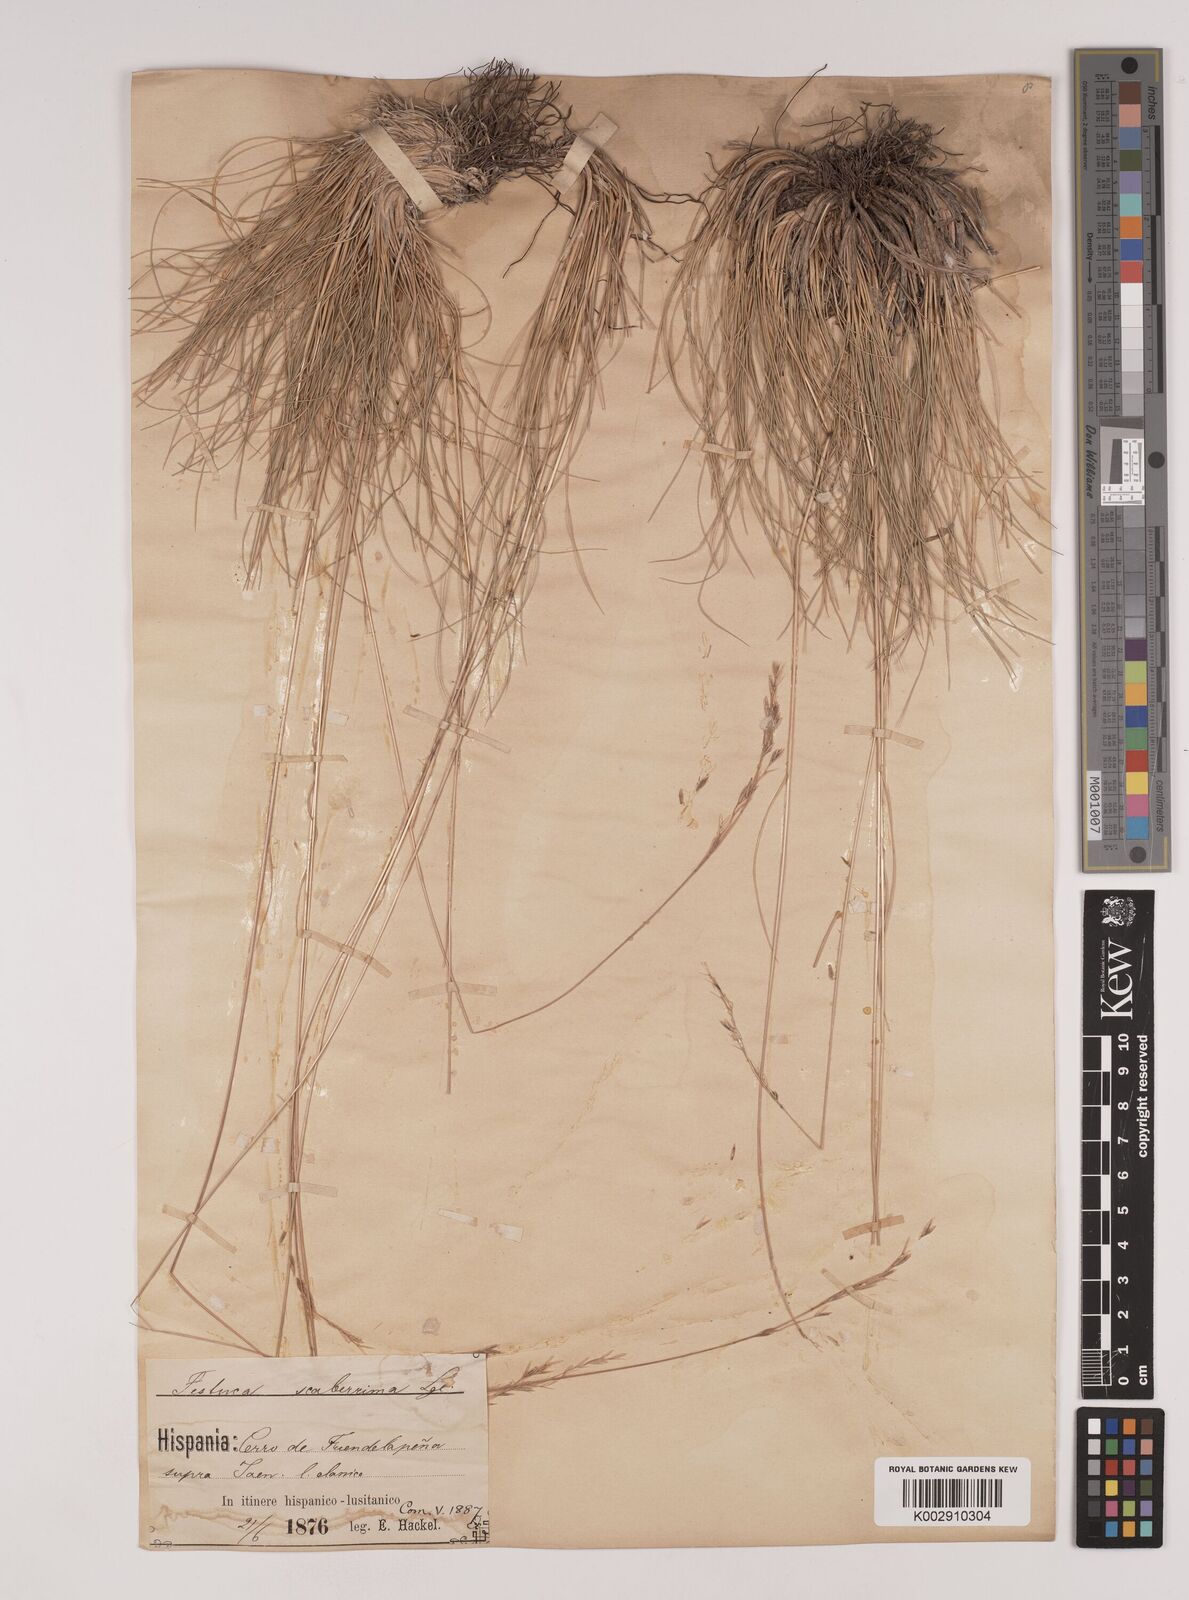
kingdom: Plantae
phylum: Tracheophyta
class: Liliopsida
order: Poales
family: Poaceae
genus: Festuca
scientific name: Festuca capillifolia
